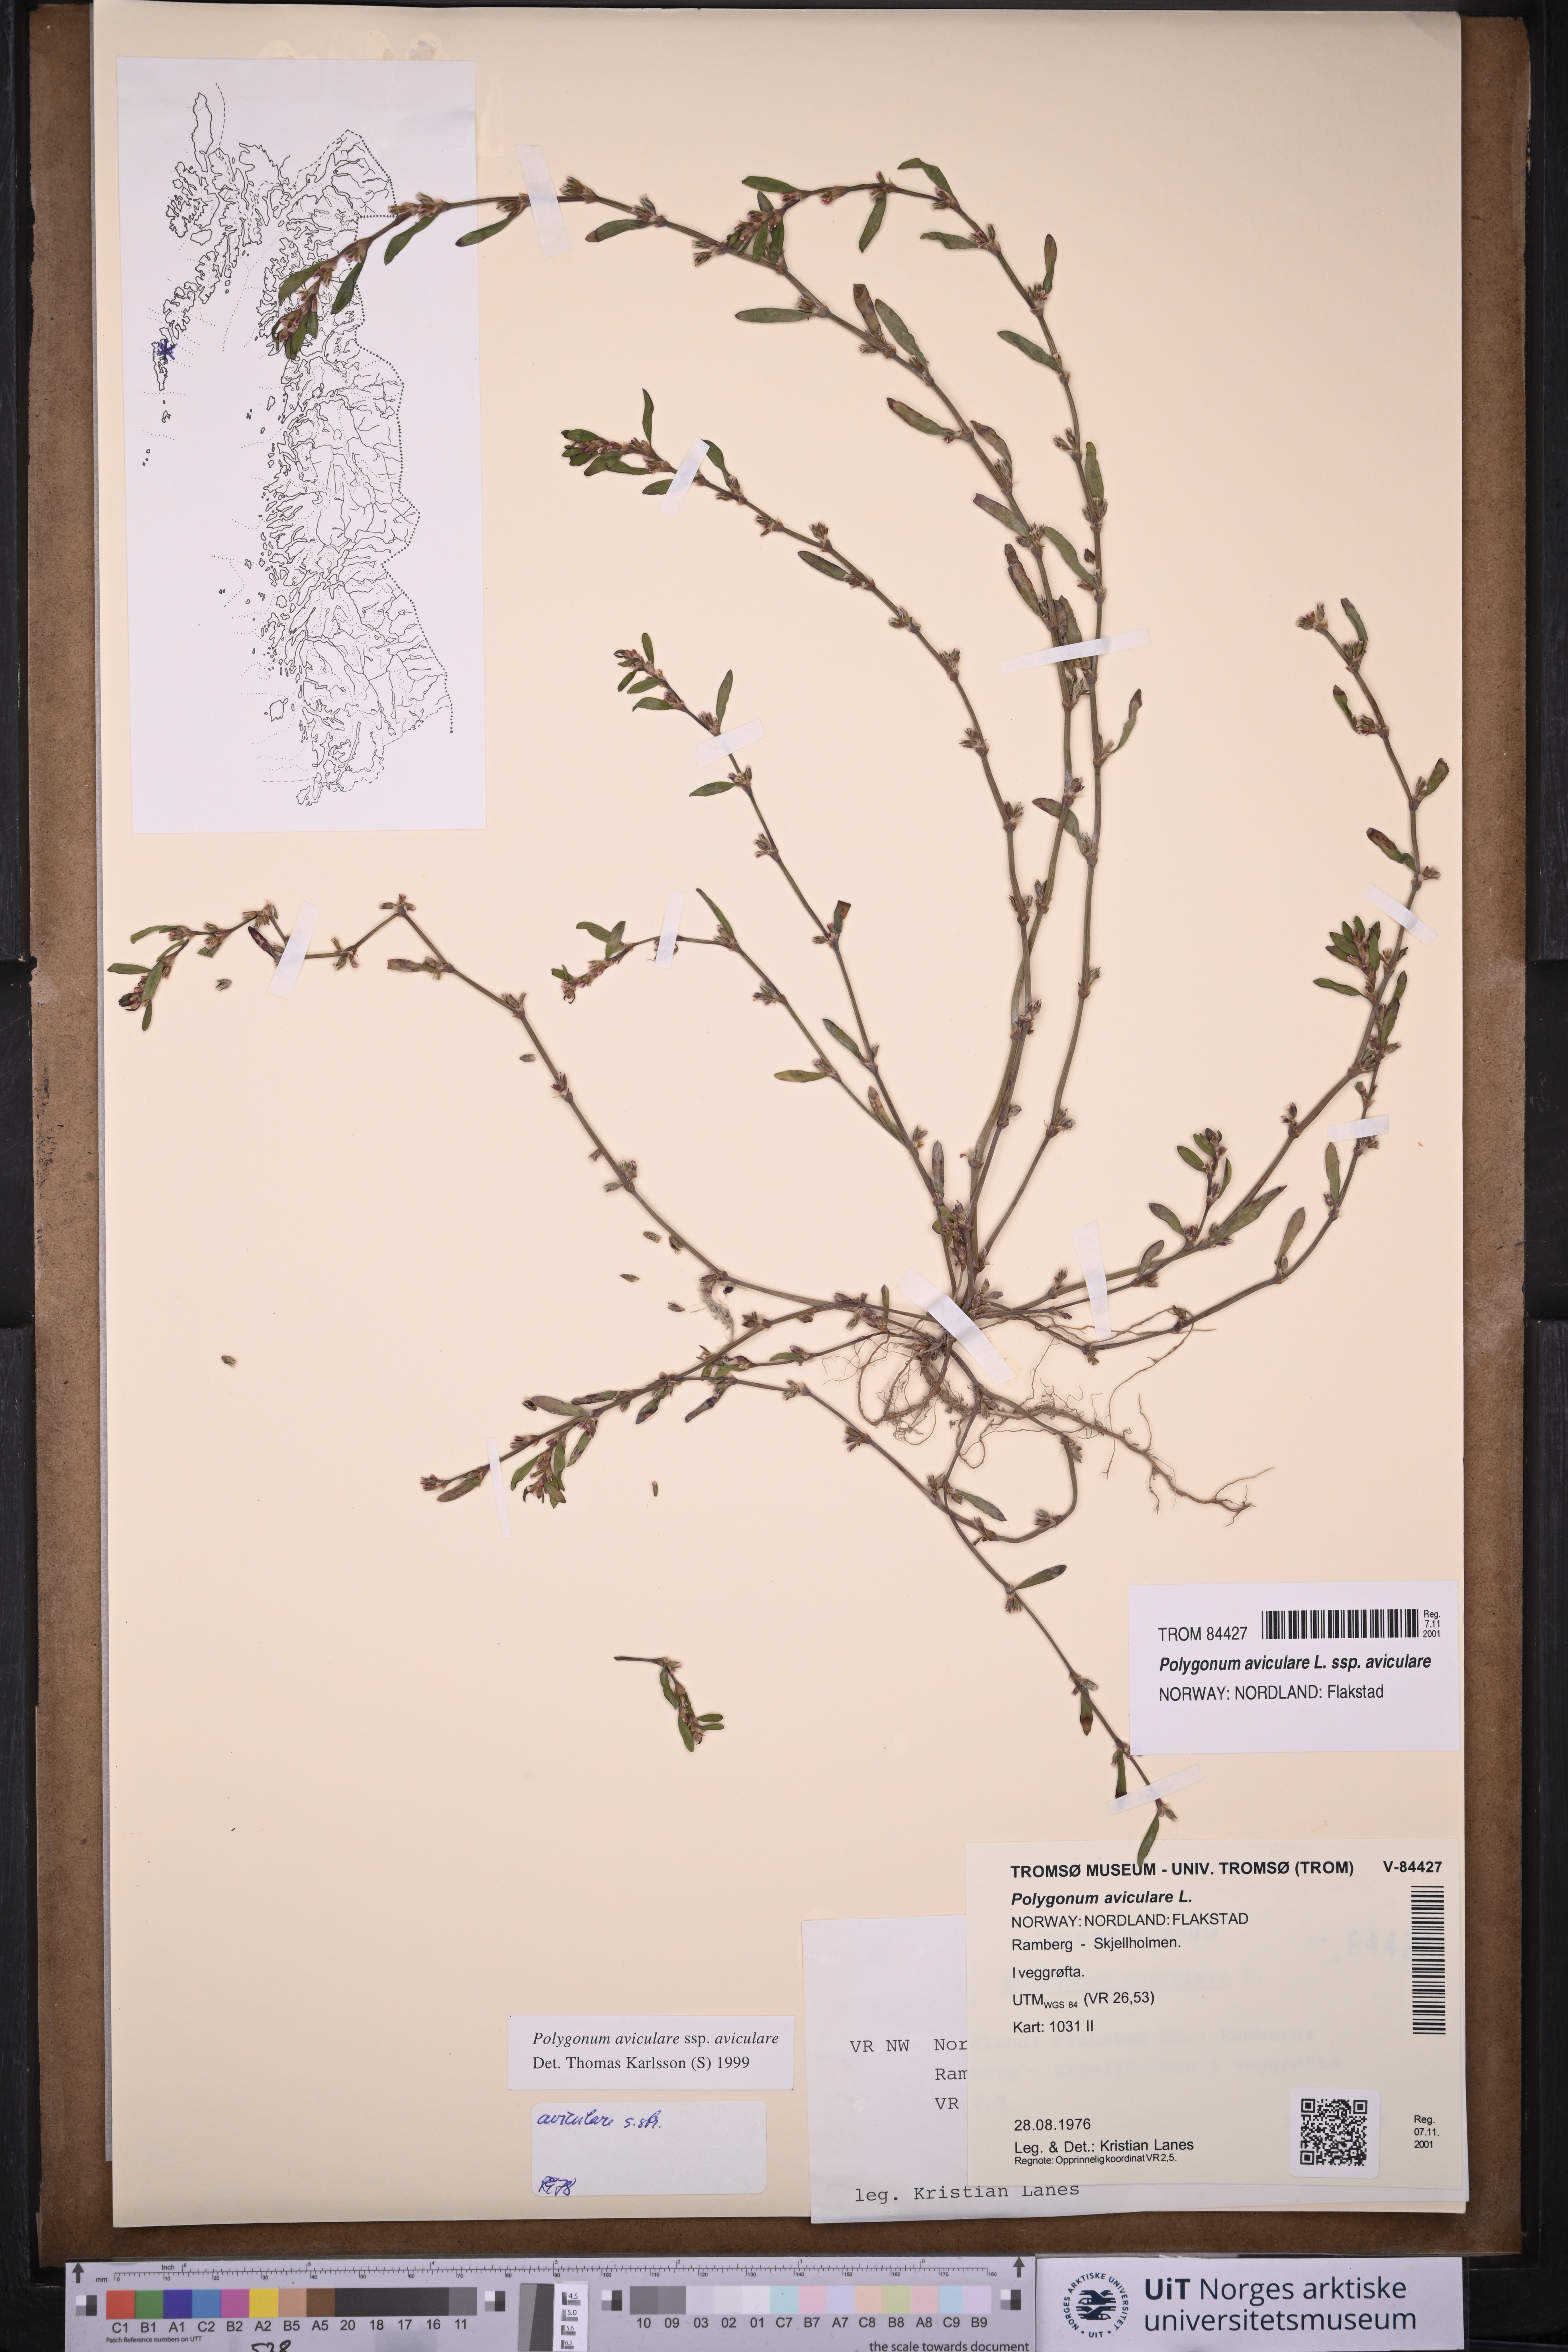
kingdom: Plantae
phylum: Tracheophyta
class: Magnoliopsida
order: Caryophyllales
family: Polygonaceae
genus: Polygonum
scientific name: Polygonum aviculare
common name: Prostrate knotweed
